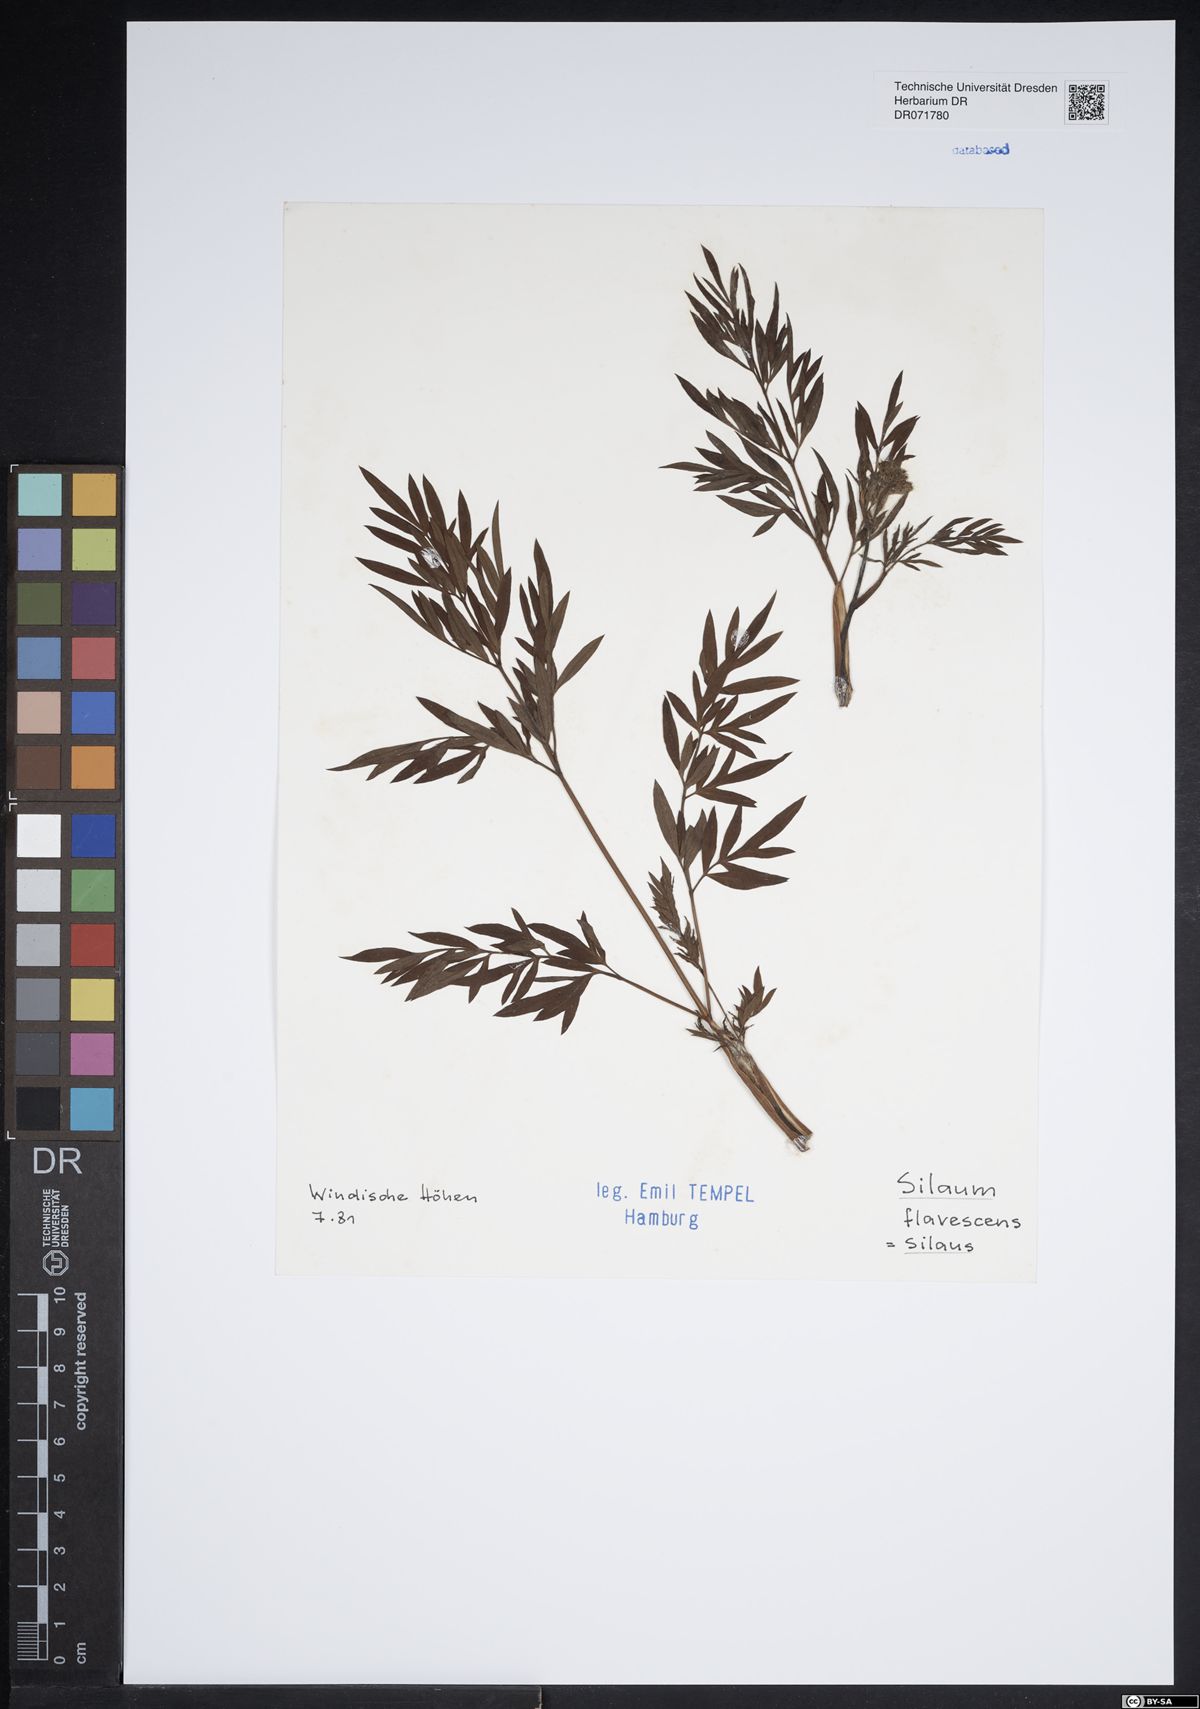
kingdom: Plantae
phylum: Tracheophyta
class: Magnoliopsida
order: Apiales
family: Apiaceae
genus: Silaum
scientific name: Silaum silaus
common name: Pepper-saxifrage
